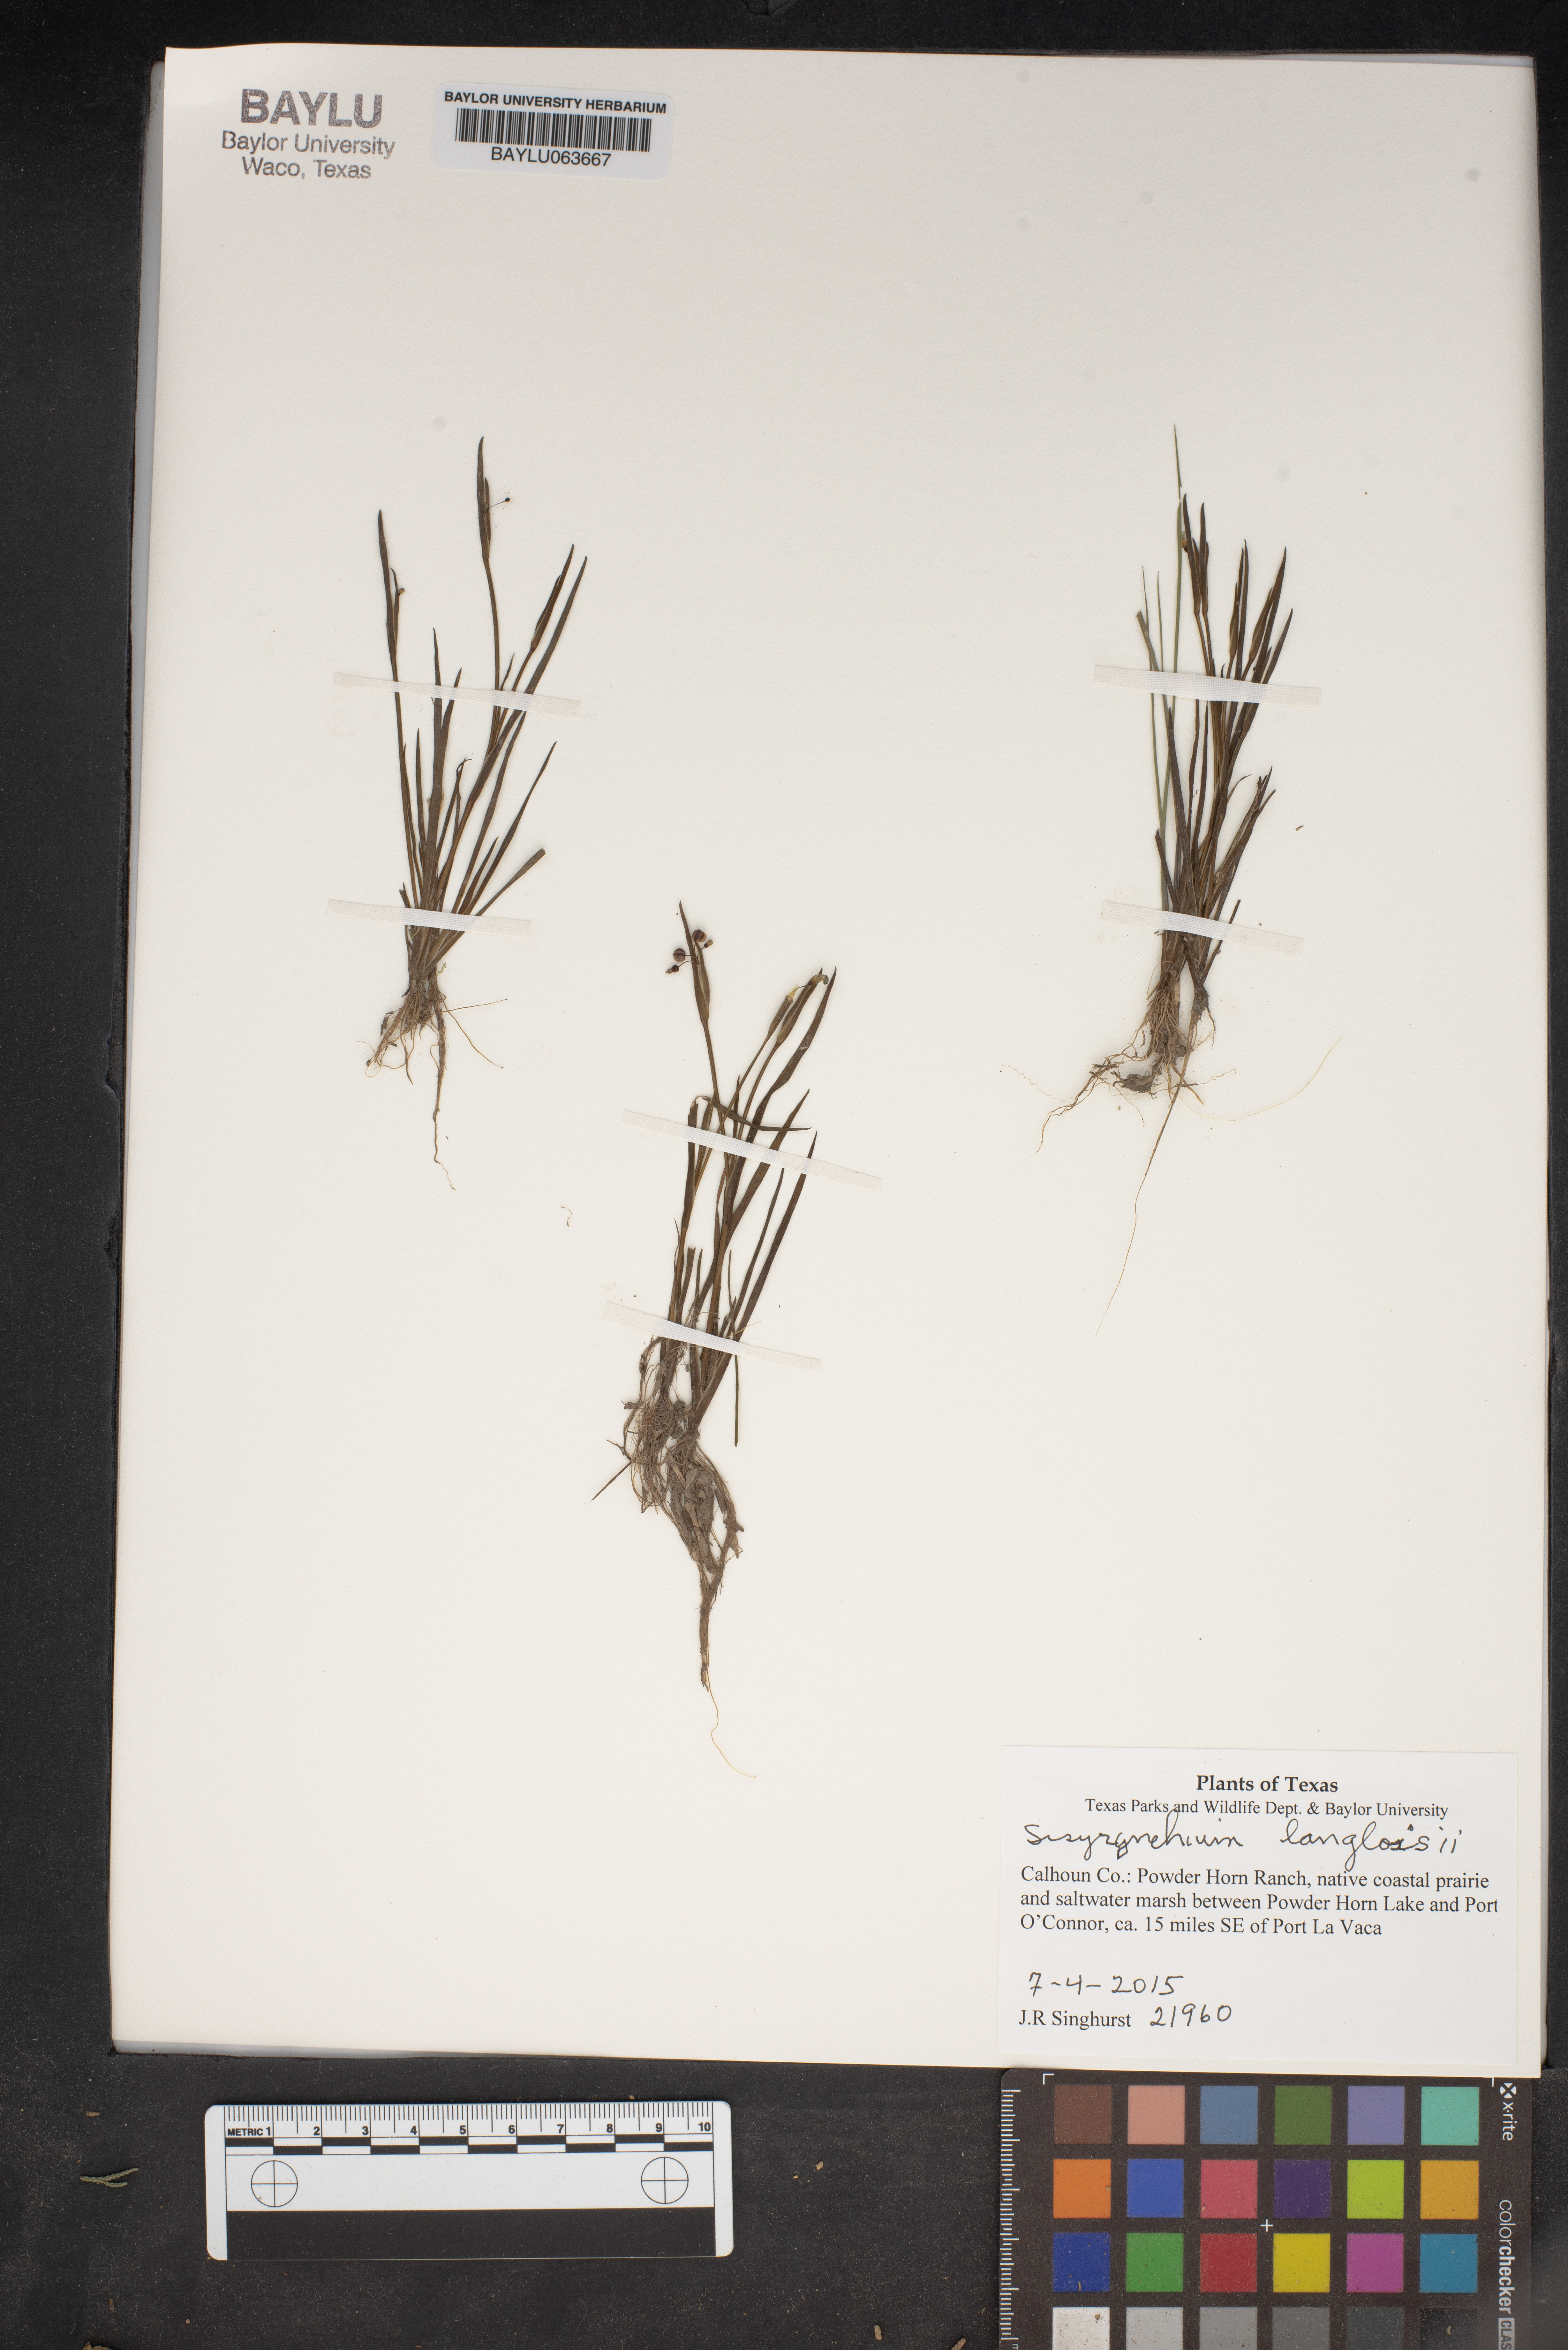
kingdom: Plantae
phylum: Tracheophyta
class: Liliopsida
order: Asparagales
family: Iridaceae
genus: Sisyrinchium
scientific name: Sisyrinchium langloisii
